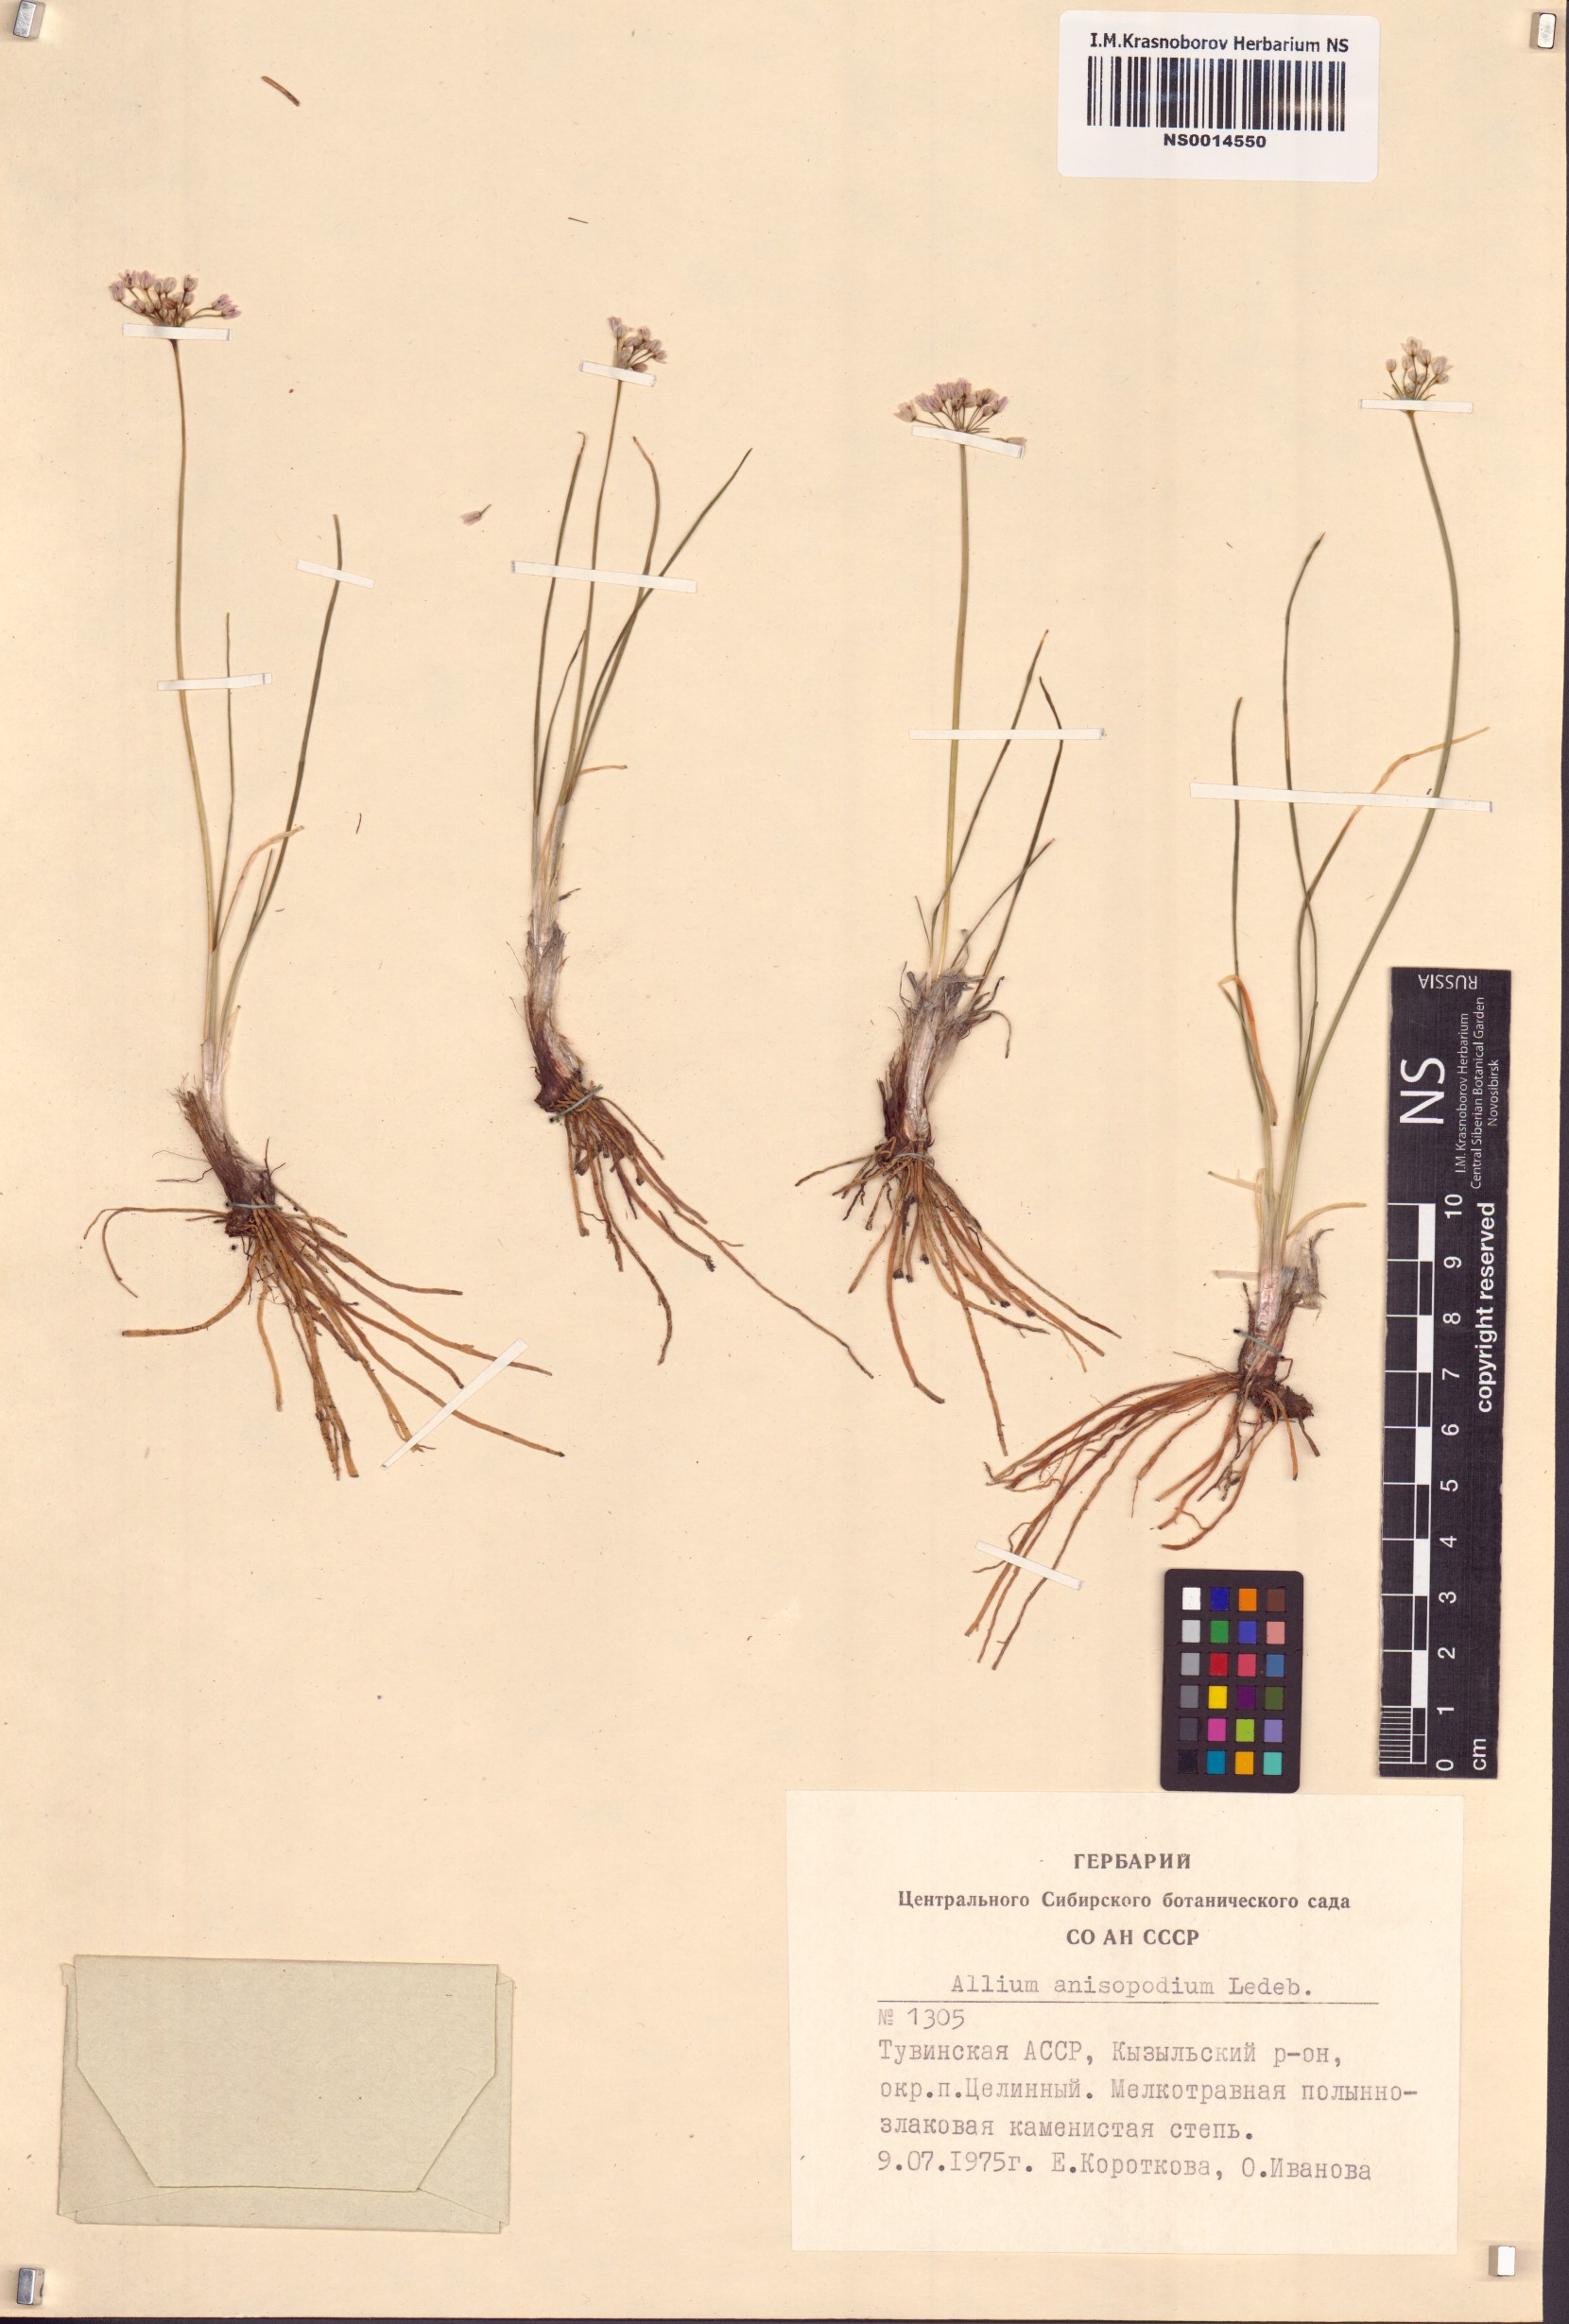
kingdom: Plantae
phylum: Tracheophyta
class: Liliopsida
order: Asparagales
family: Amaryllidaceae
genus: Allium
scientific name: Allium anisopodium
